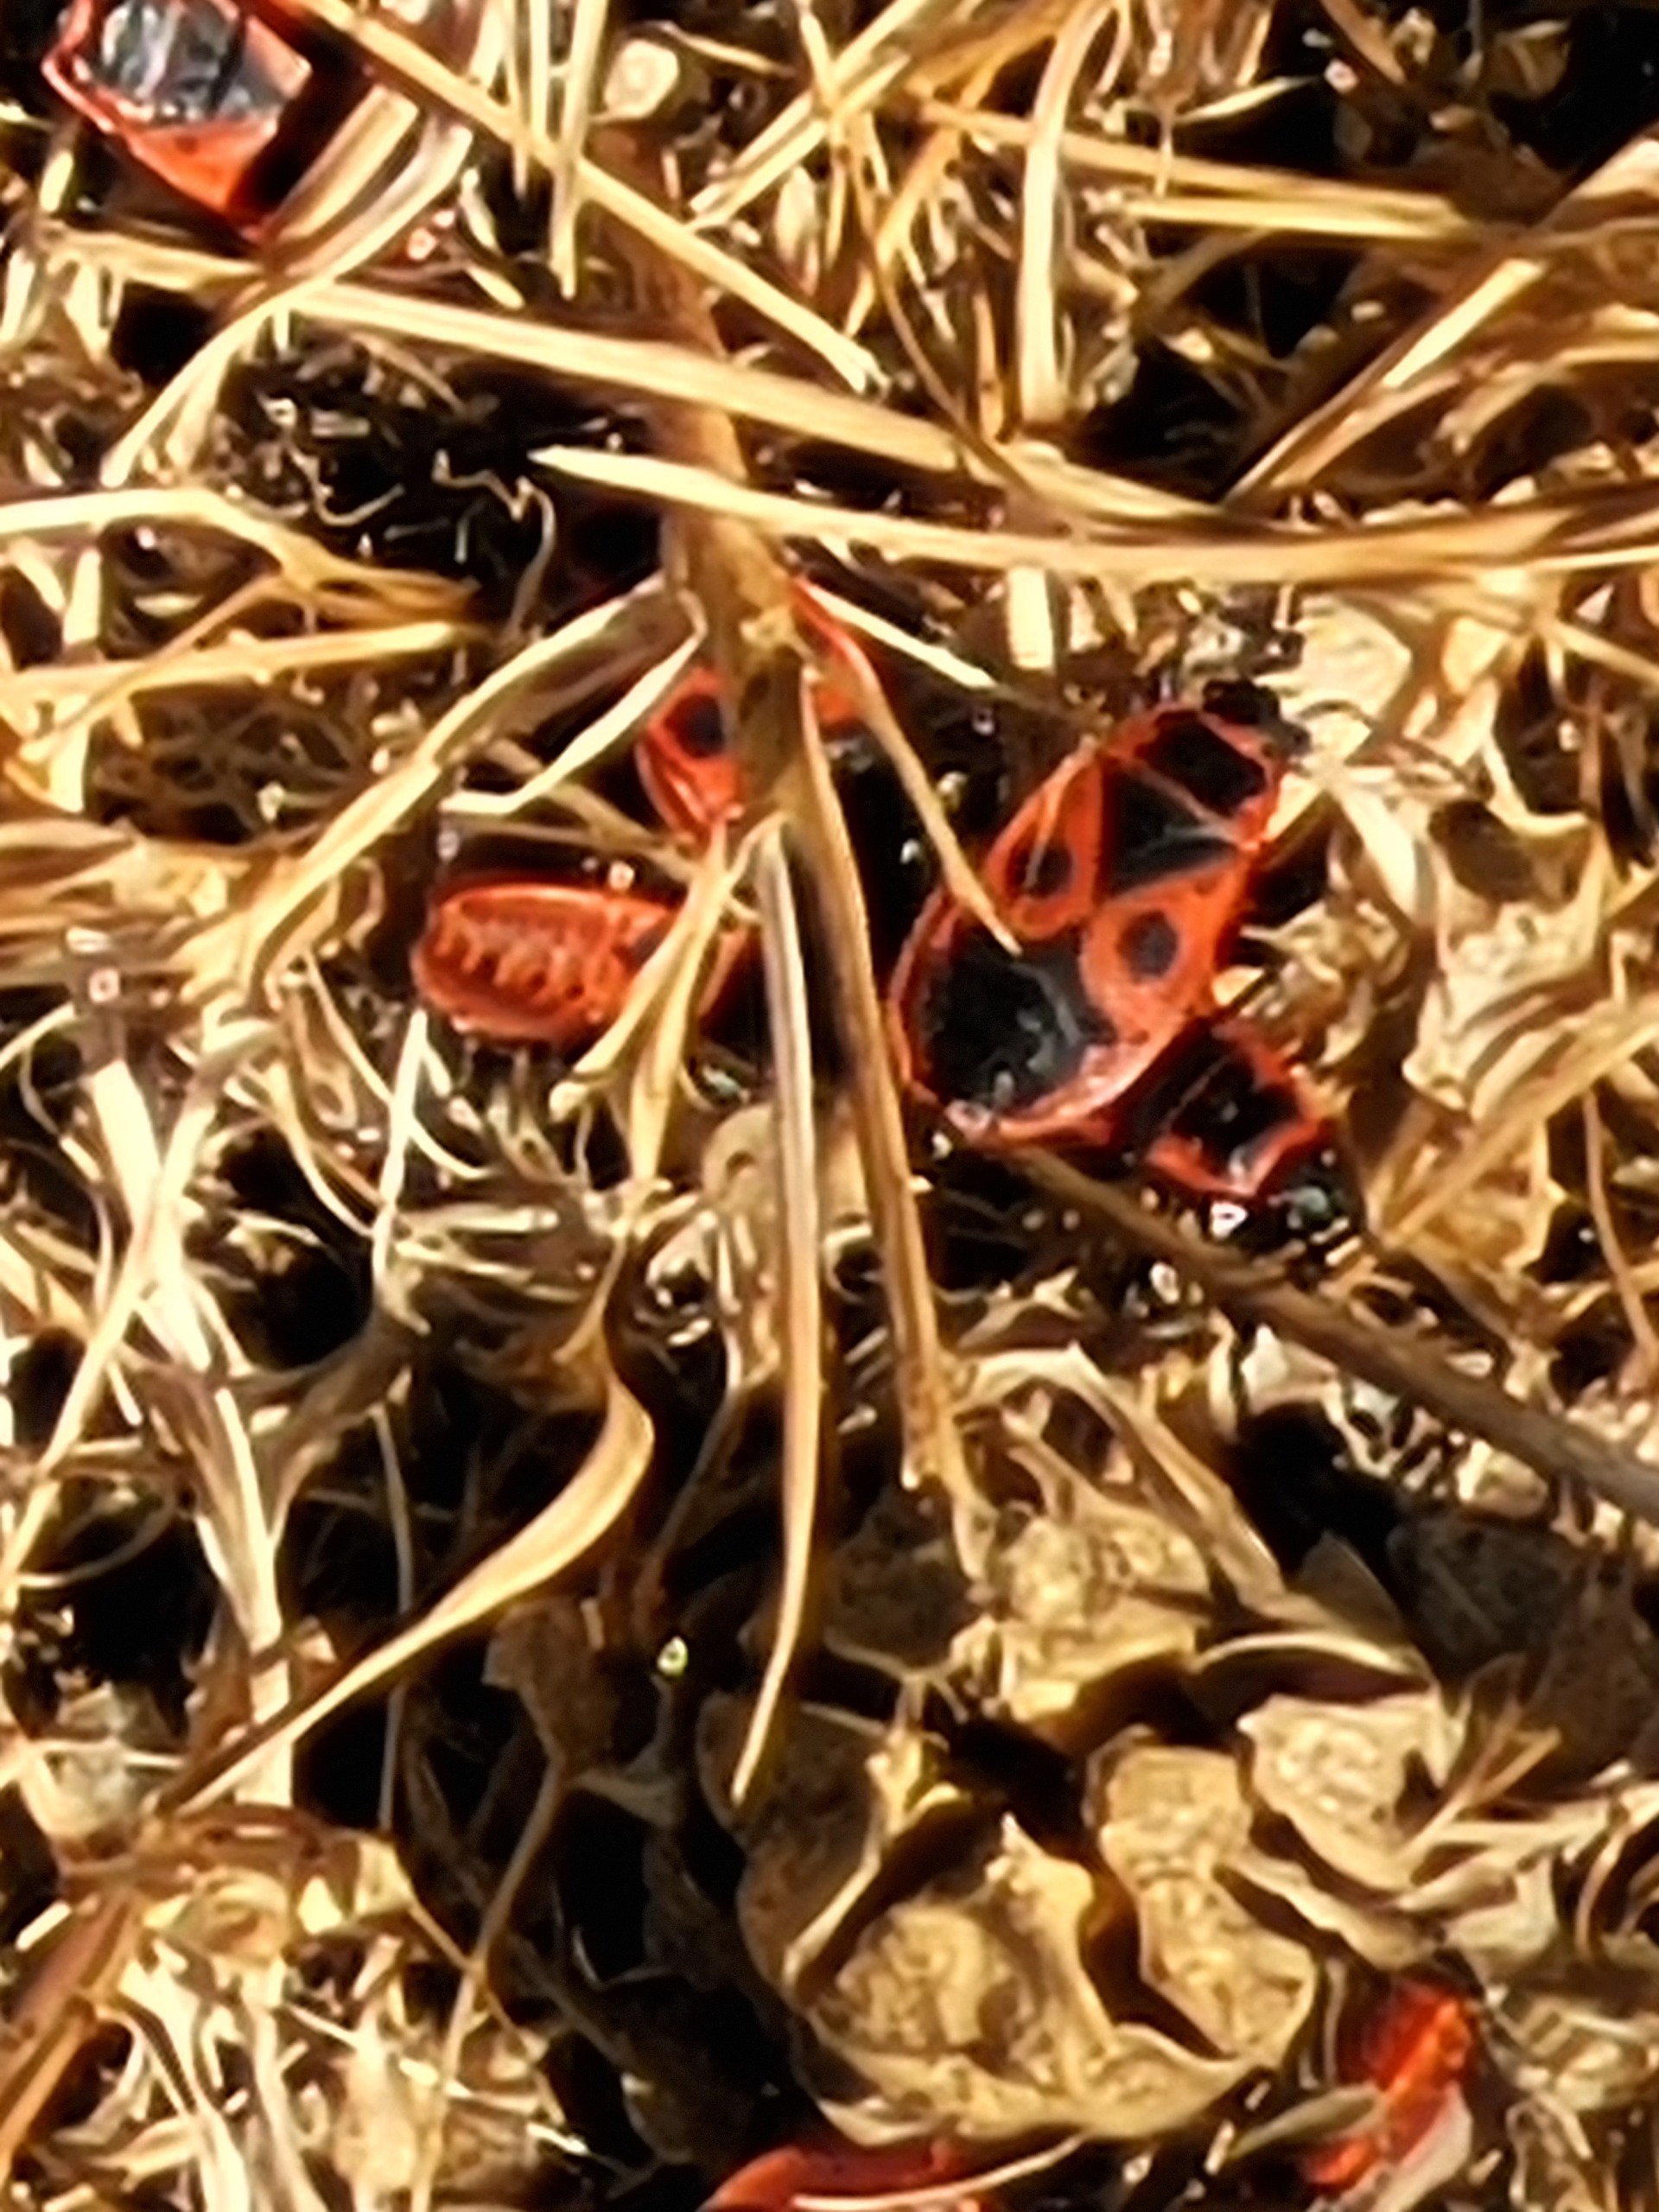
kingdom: Animalia
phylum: Arthropoda
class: Insecta
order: Hemiptera
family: Pyrrhocoridae
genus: Pyrrhocoris
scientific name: Pyrrhocoris apterus
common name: Ildtæge
